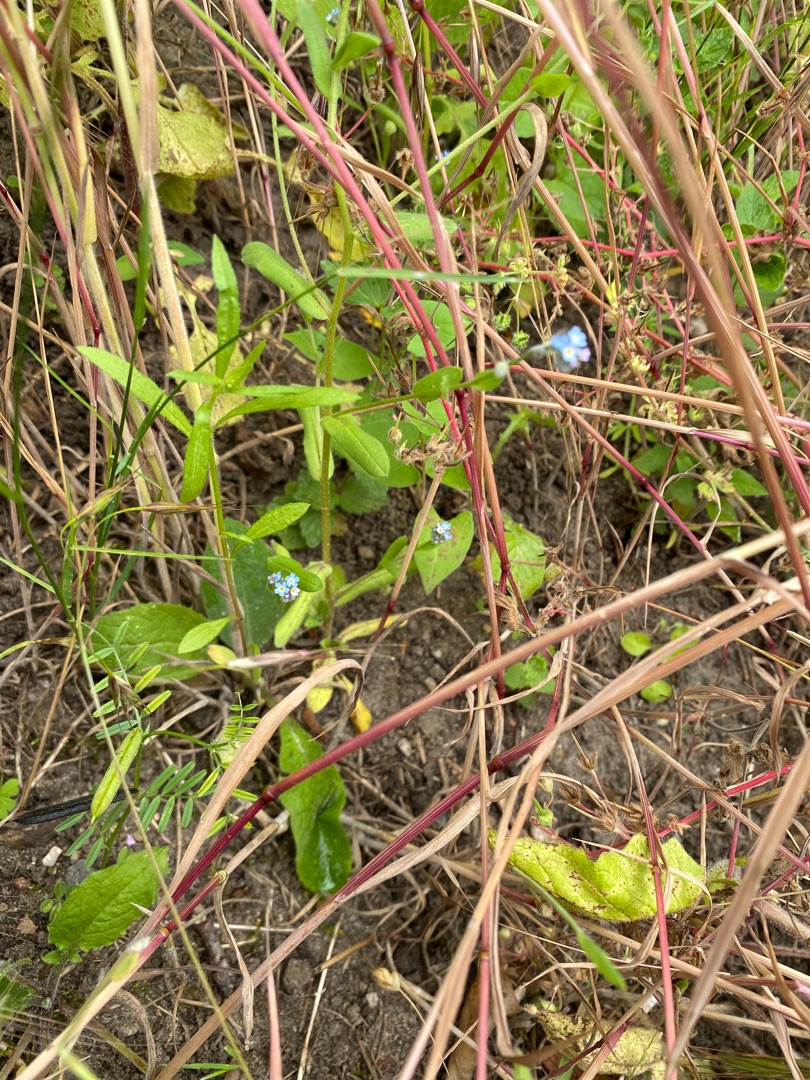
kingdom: Plantae
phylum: Tracheophyta
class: Magnoliopsida
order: Boraginales
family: Boraginaceae
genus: Myosotis
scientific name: Myosotis arvensis
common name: Mark-forglemmigej
